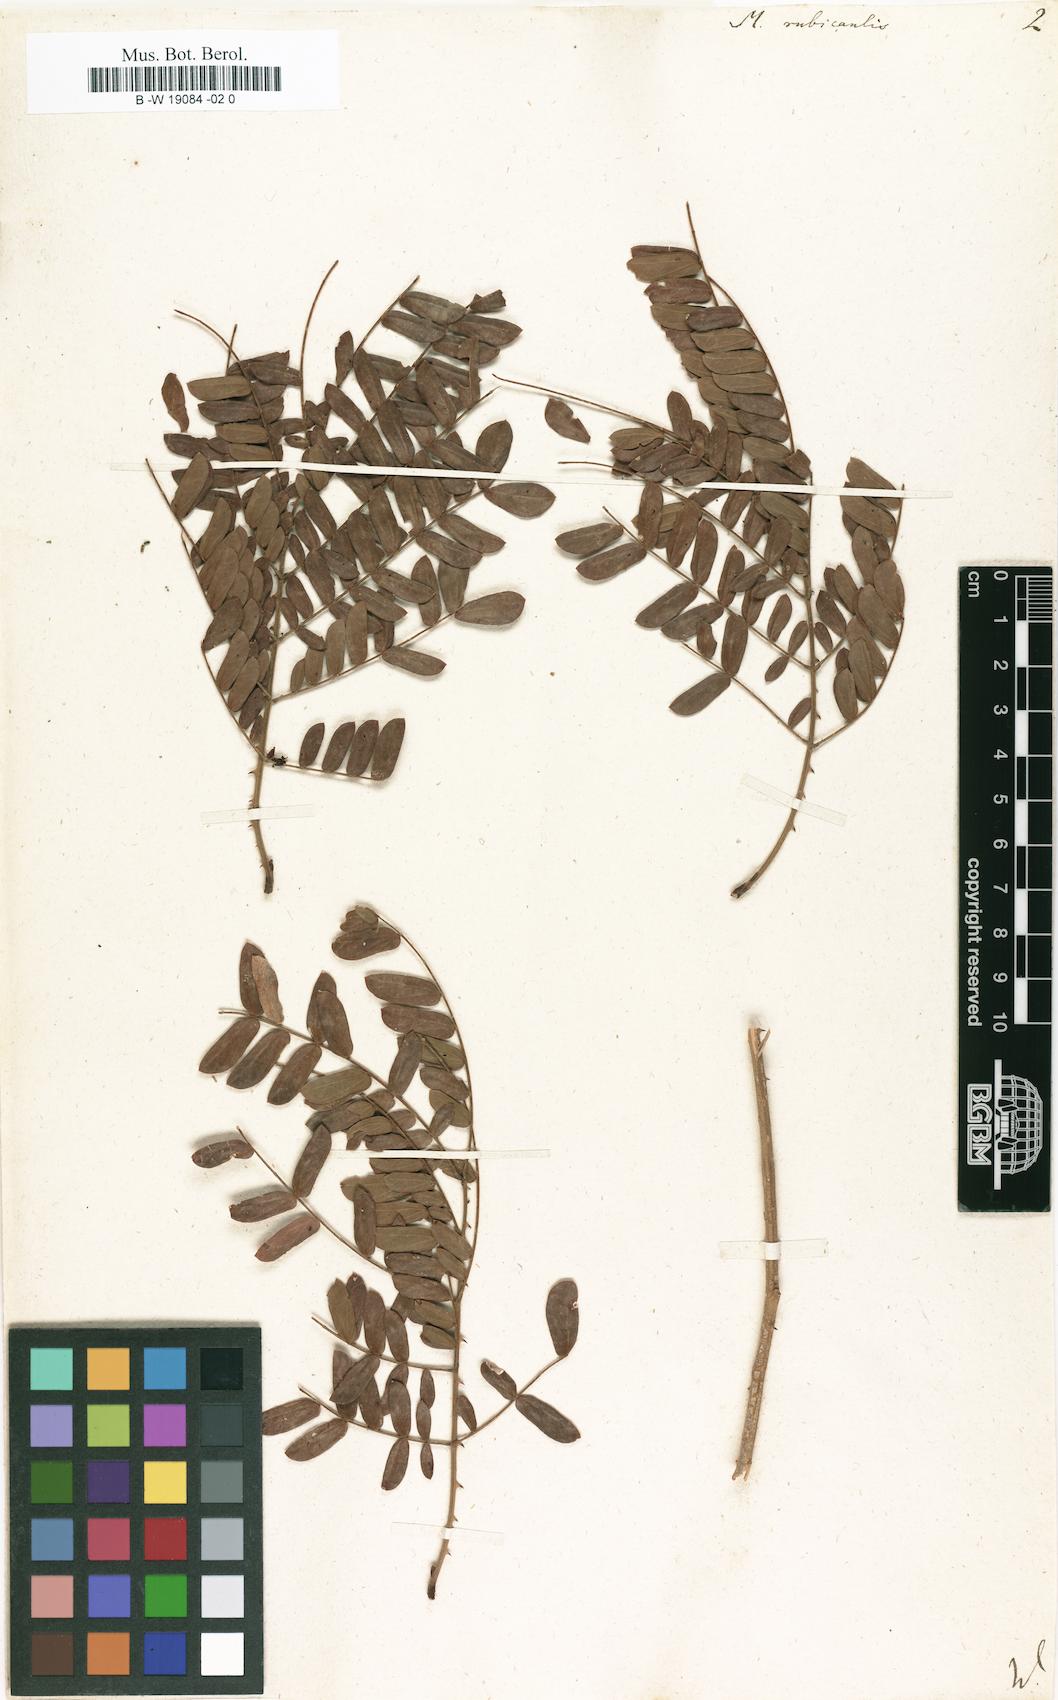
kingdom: Plantae
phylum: Tracheophyta
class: Magnoliopsida
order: Fabales
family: Fabaceae
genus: Mimosa
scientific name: Mimosa rubricaulis
